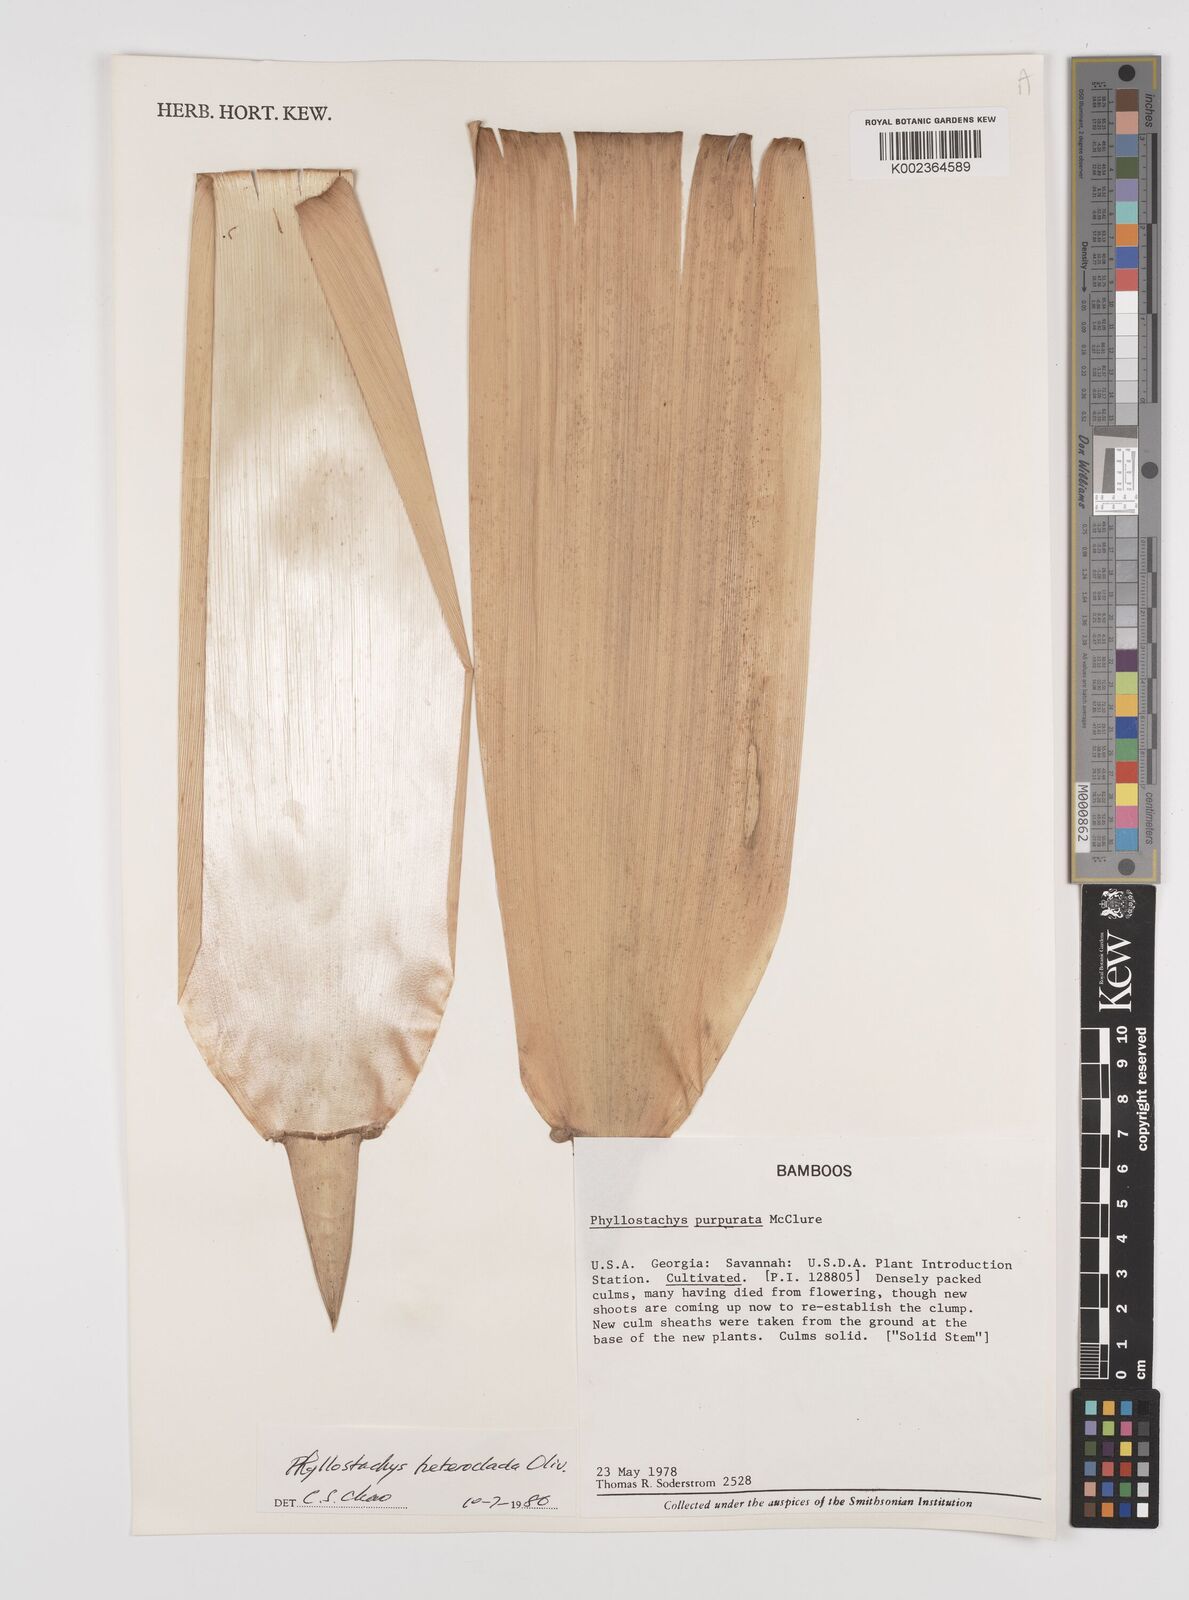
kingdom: Plantae
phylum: Tracheophyta
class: Liliopsida
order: Poales
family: Poaceae
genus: Phyllostachys
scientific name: Phyllostachys heteroclada
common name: Fishscale bamboo
